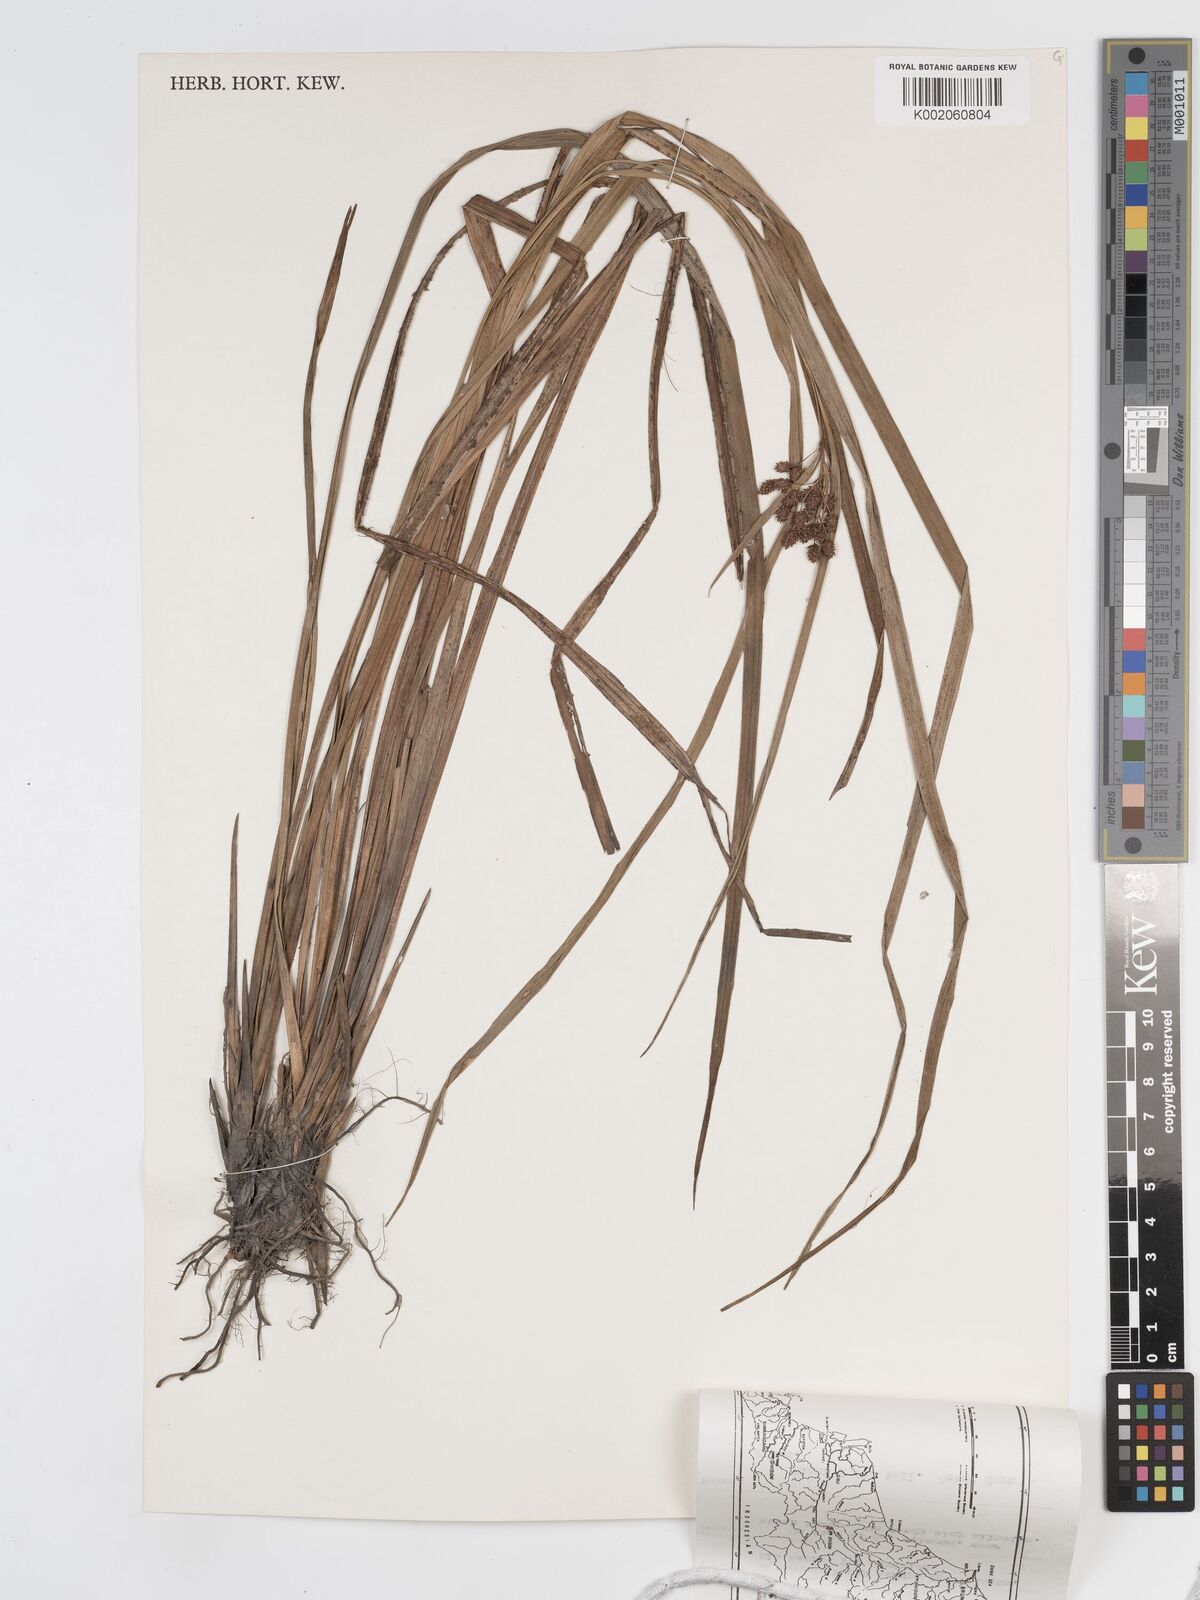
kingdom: Plantae
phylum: Tracheophyta
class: Liliopsida
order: Poales
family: Cyperaceae
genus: Hypolytrum
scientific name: Hypolytrum nemorum
